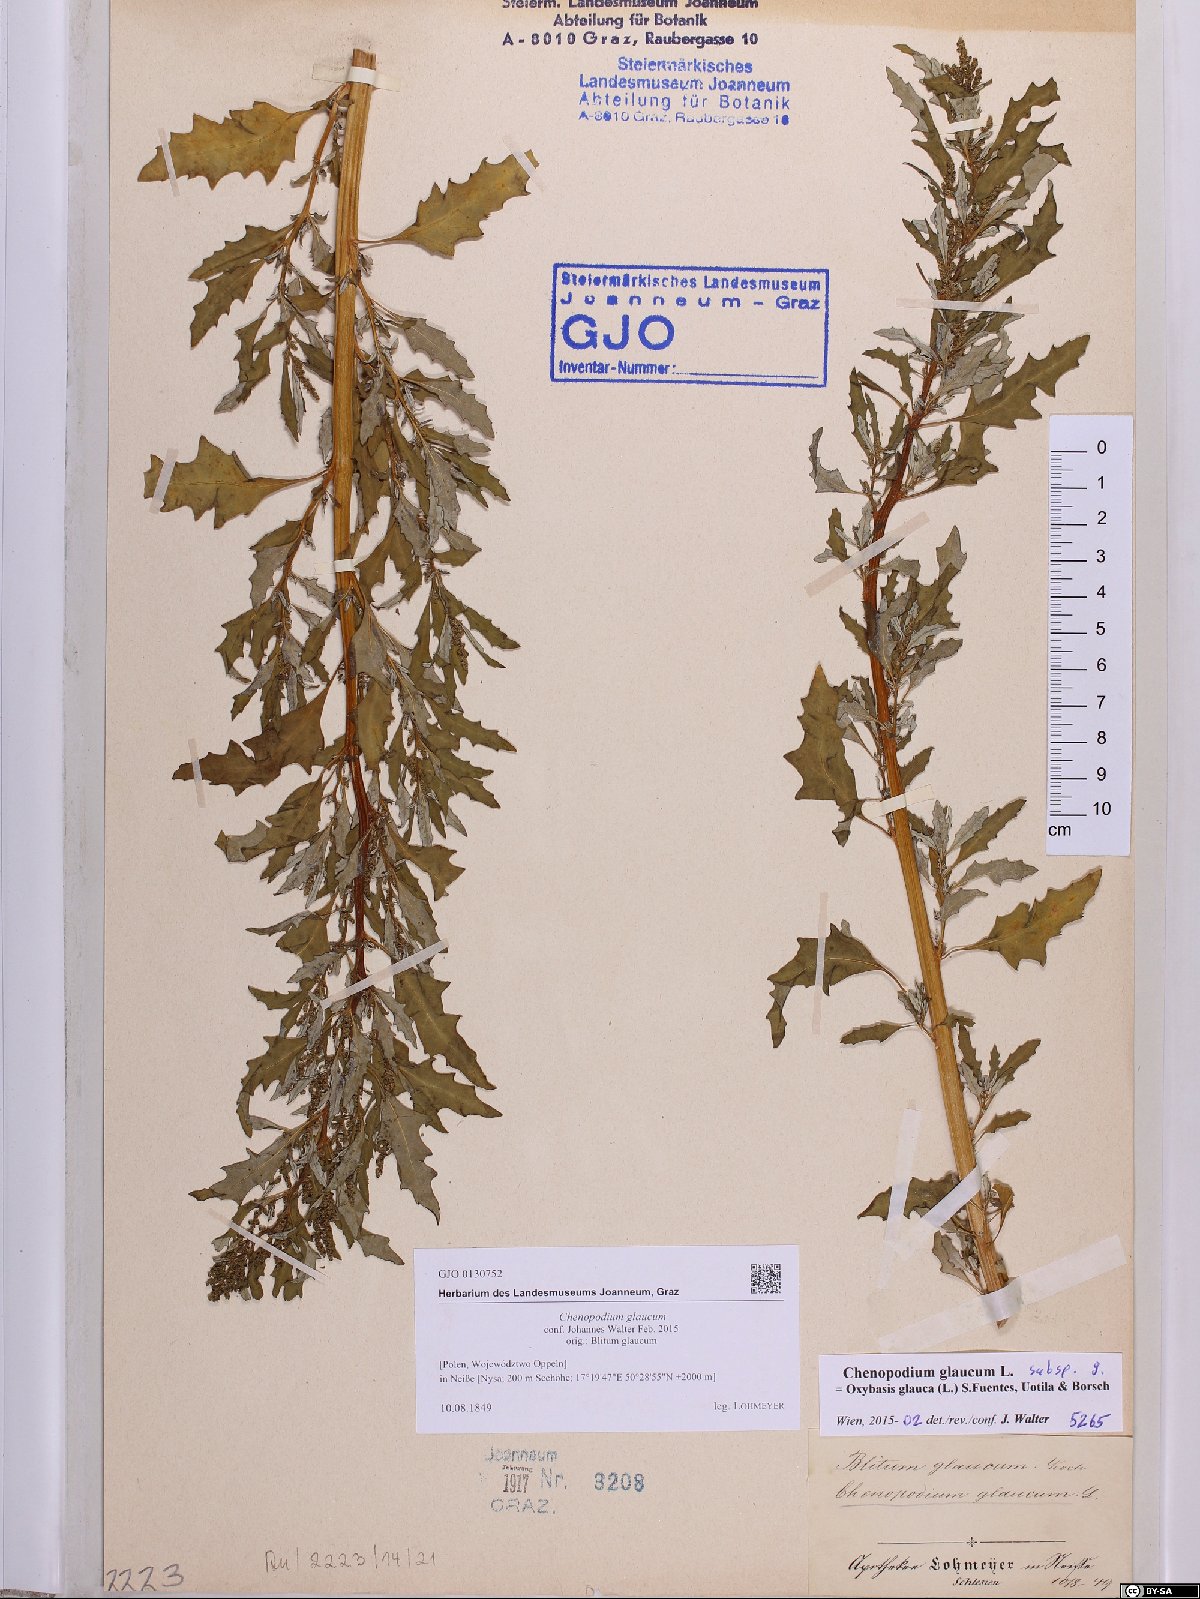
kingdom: Plantae
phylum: Tracheophyta
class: Magnoliopsida
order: Caryophyllales
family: Amaranthaceae
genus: Oxybasis
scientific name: Oxybasis glauca
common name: Glaucous goosefoot
